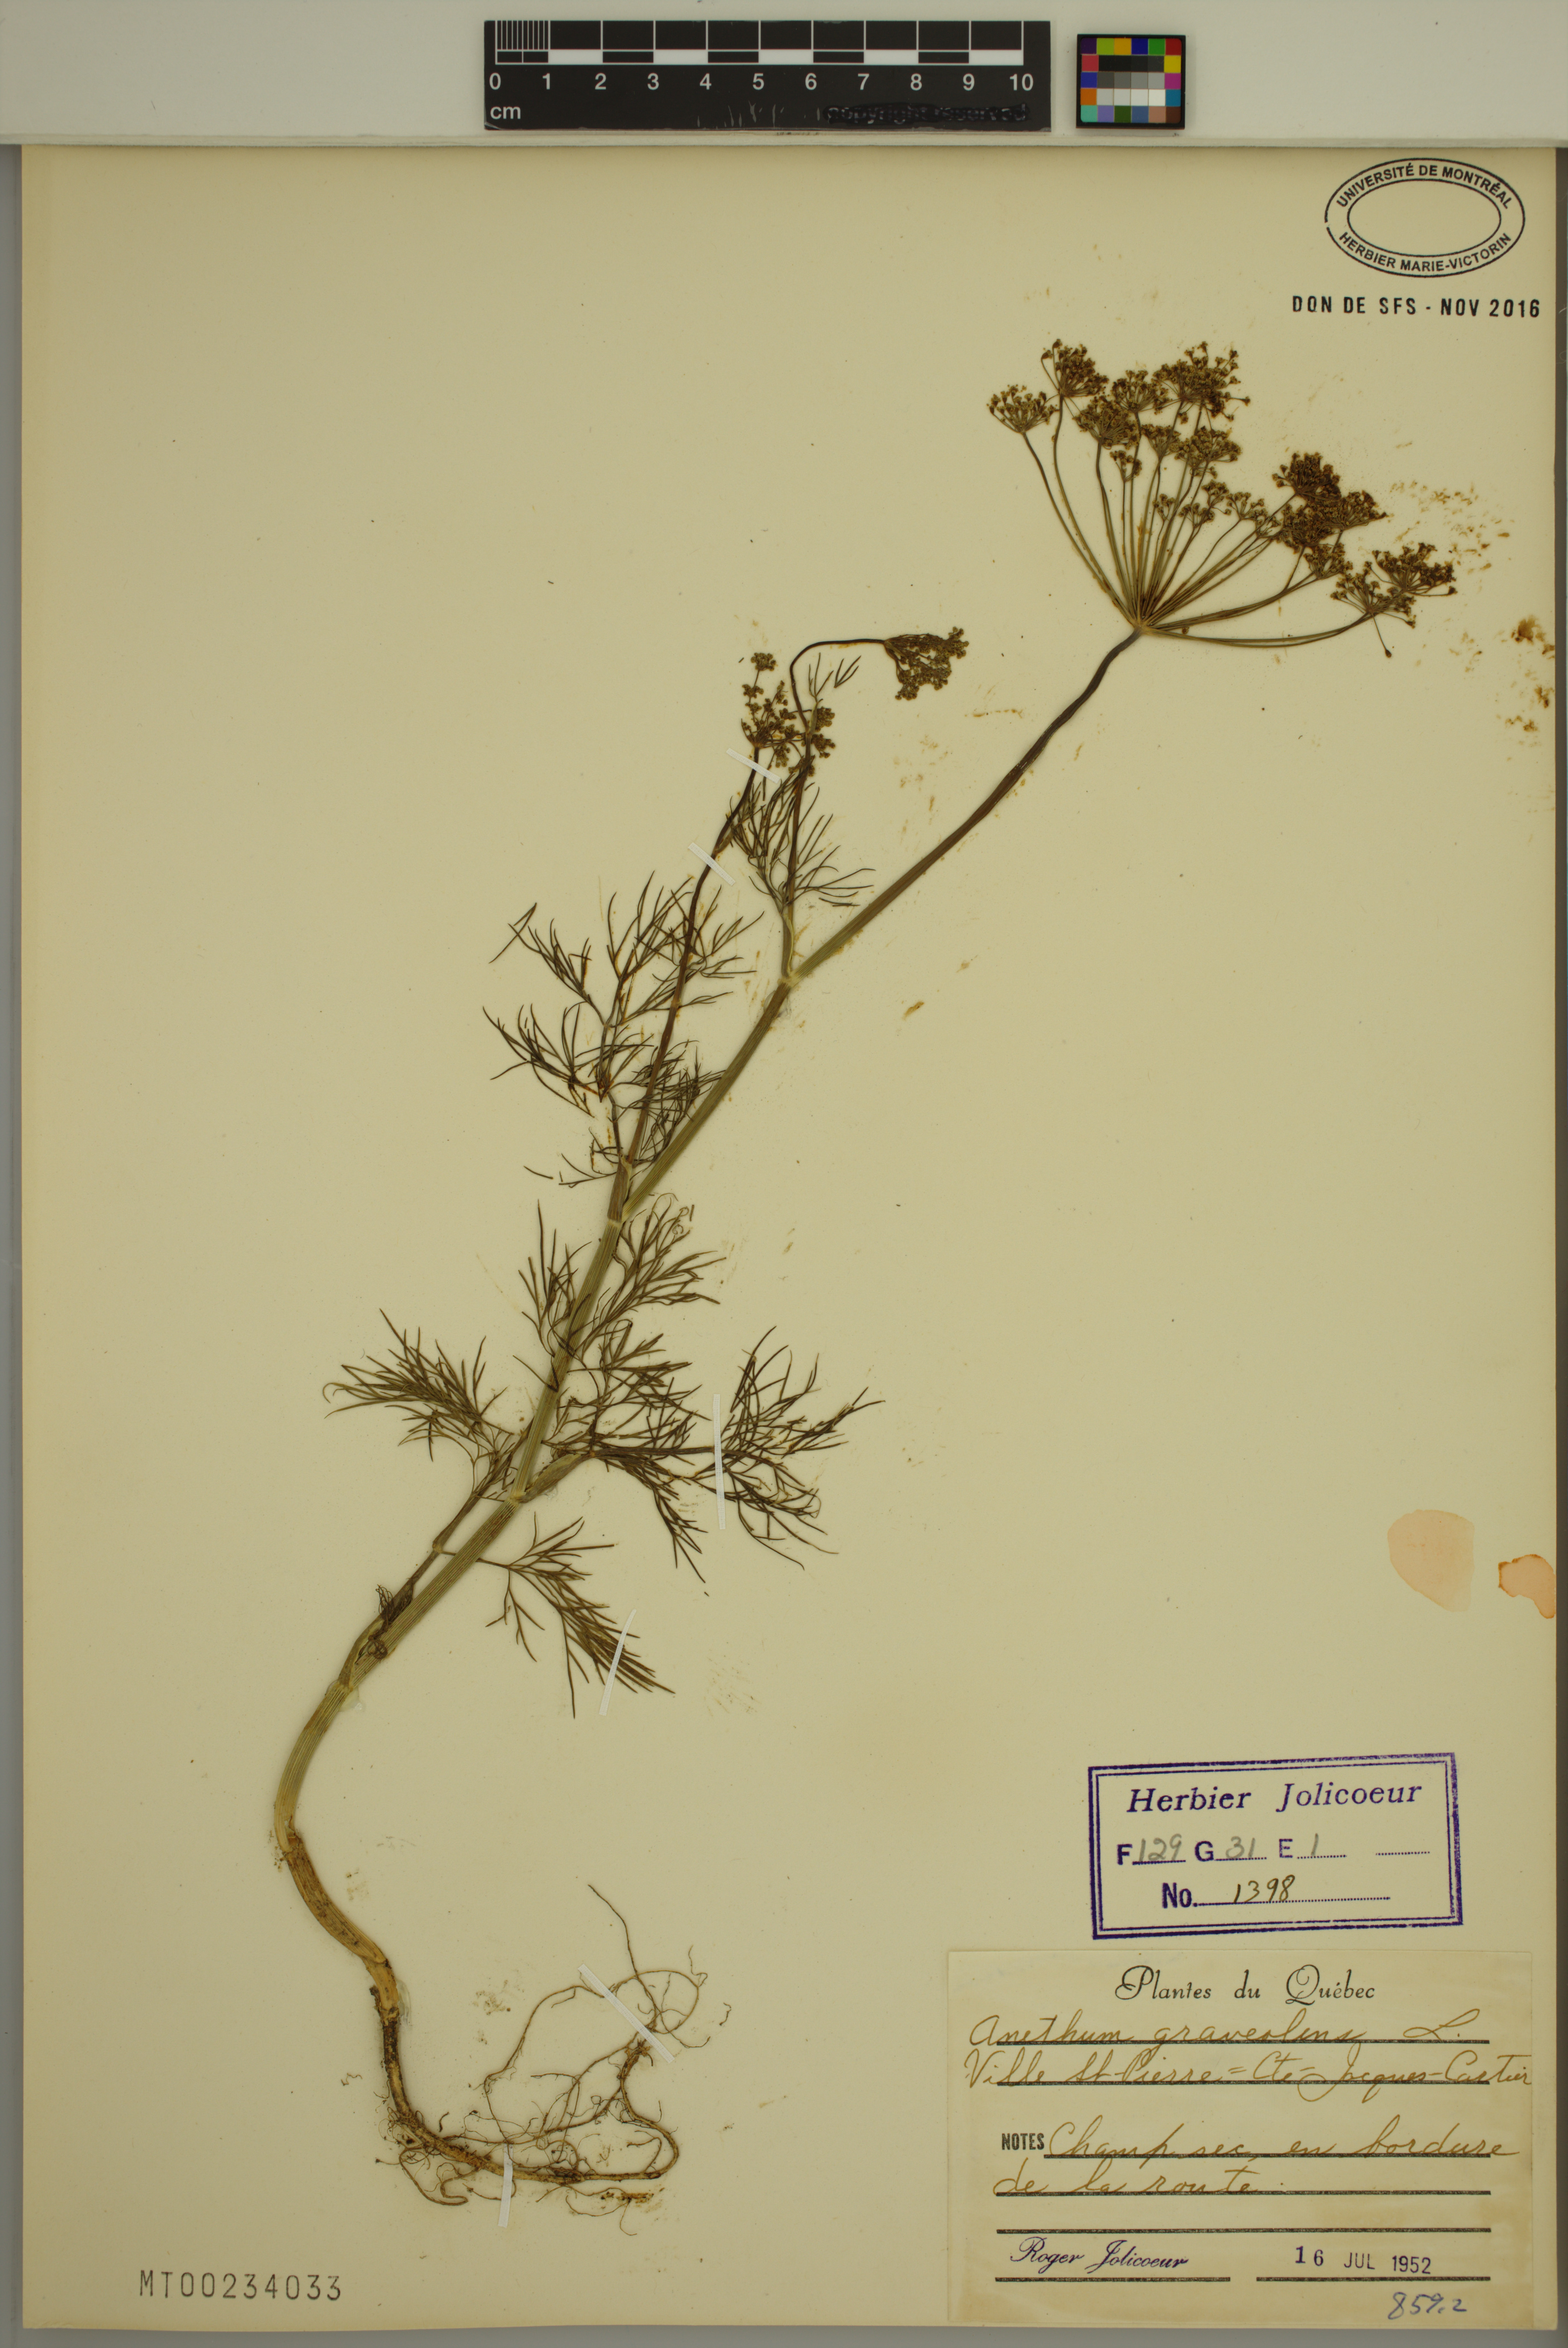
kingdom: Plantae
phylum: Tracheophyta
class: Magnoliopsida
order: Apiales
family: Apiaceae
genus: Anethum
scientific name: Anethum graveolens
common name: Dill
